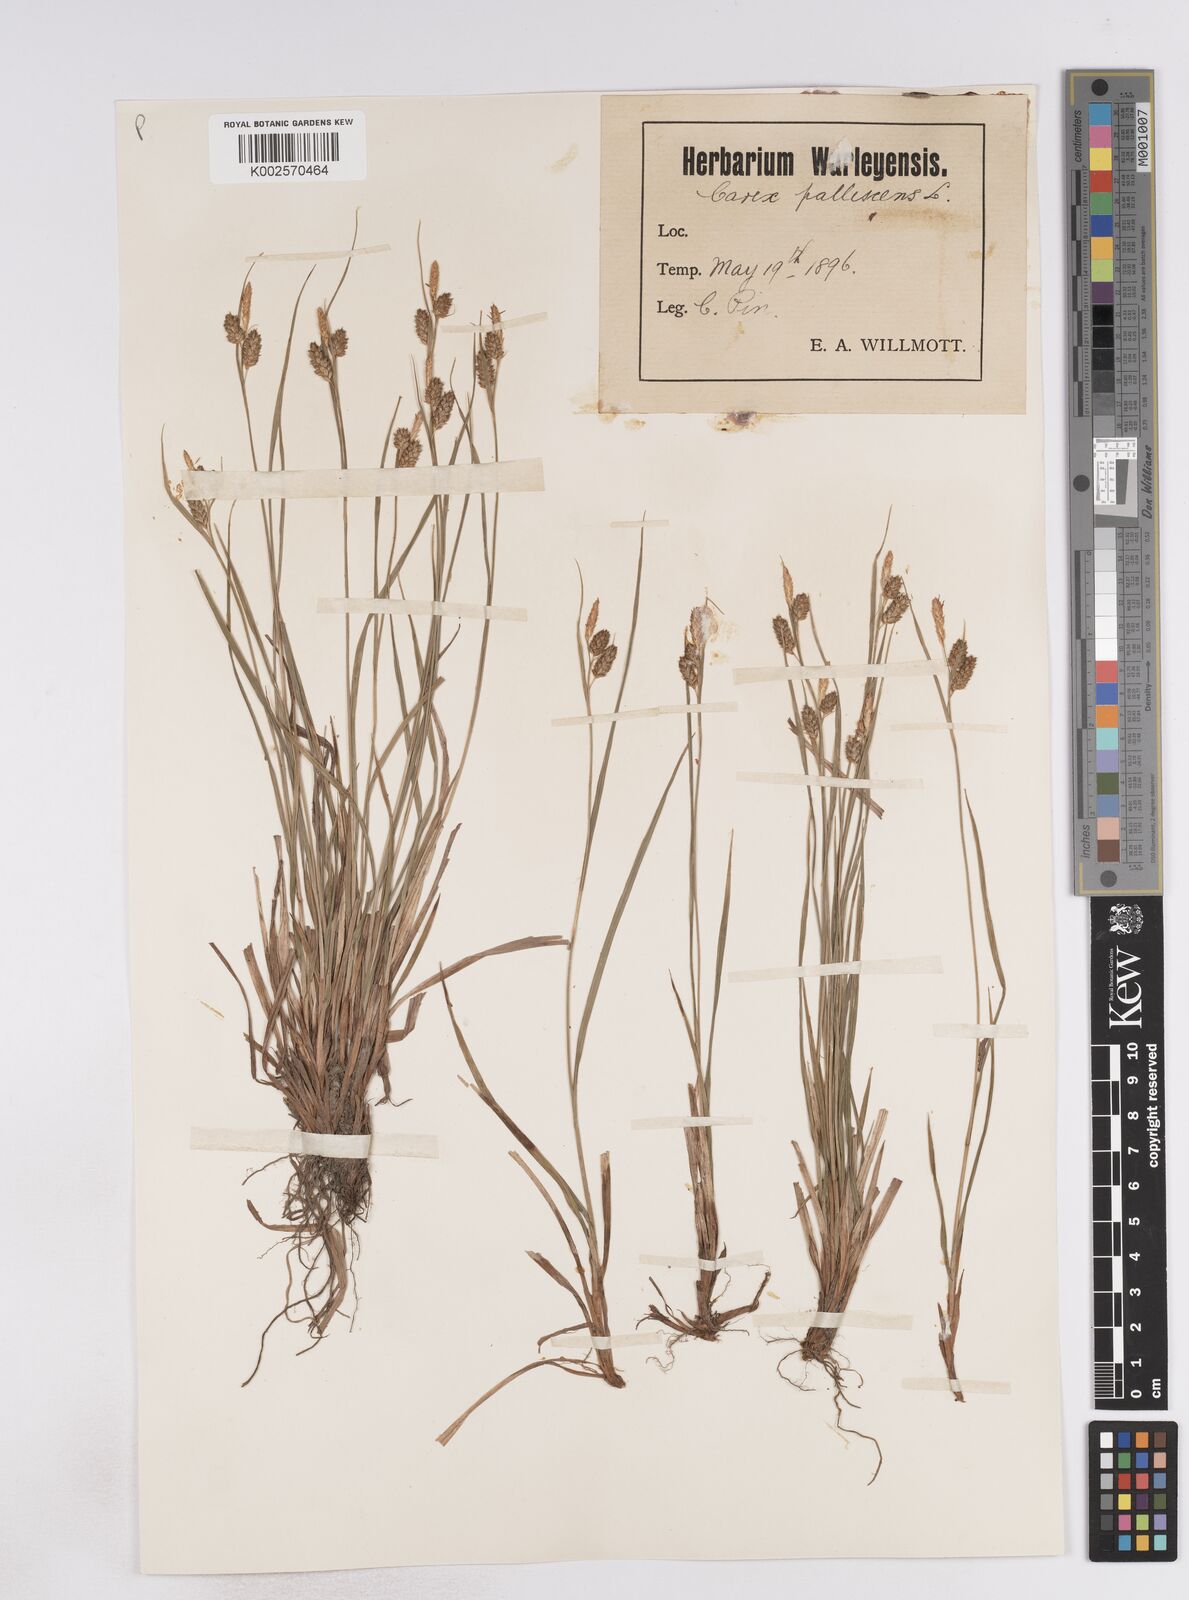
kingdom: Plantae
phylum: Tracheophyta
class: Liliopsida
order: Poales
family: Cyperaceae
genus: Carex
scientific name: Carex pallescens
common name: Pale sedge
